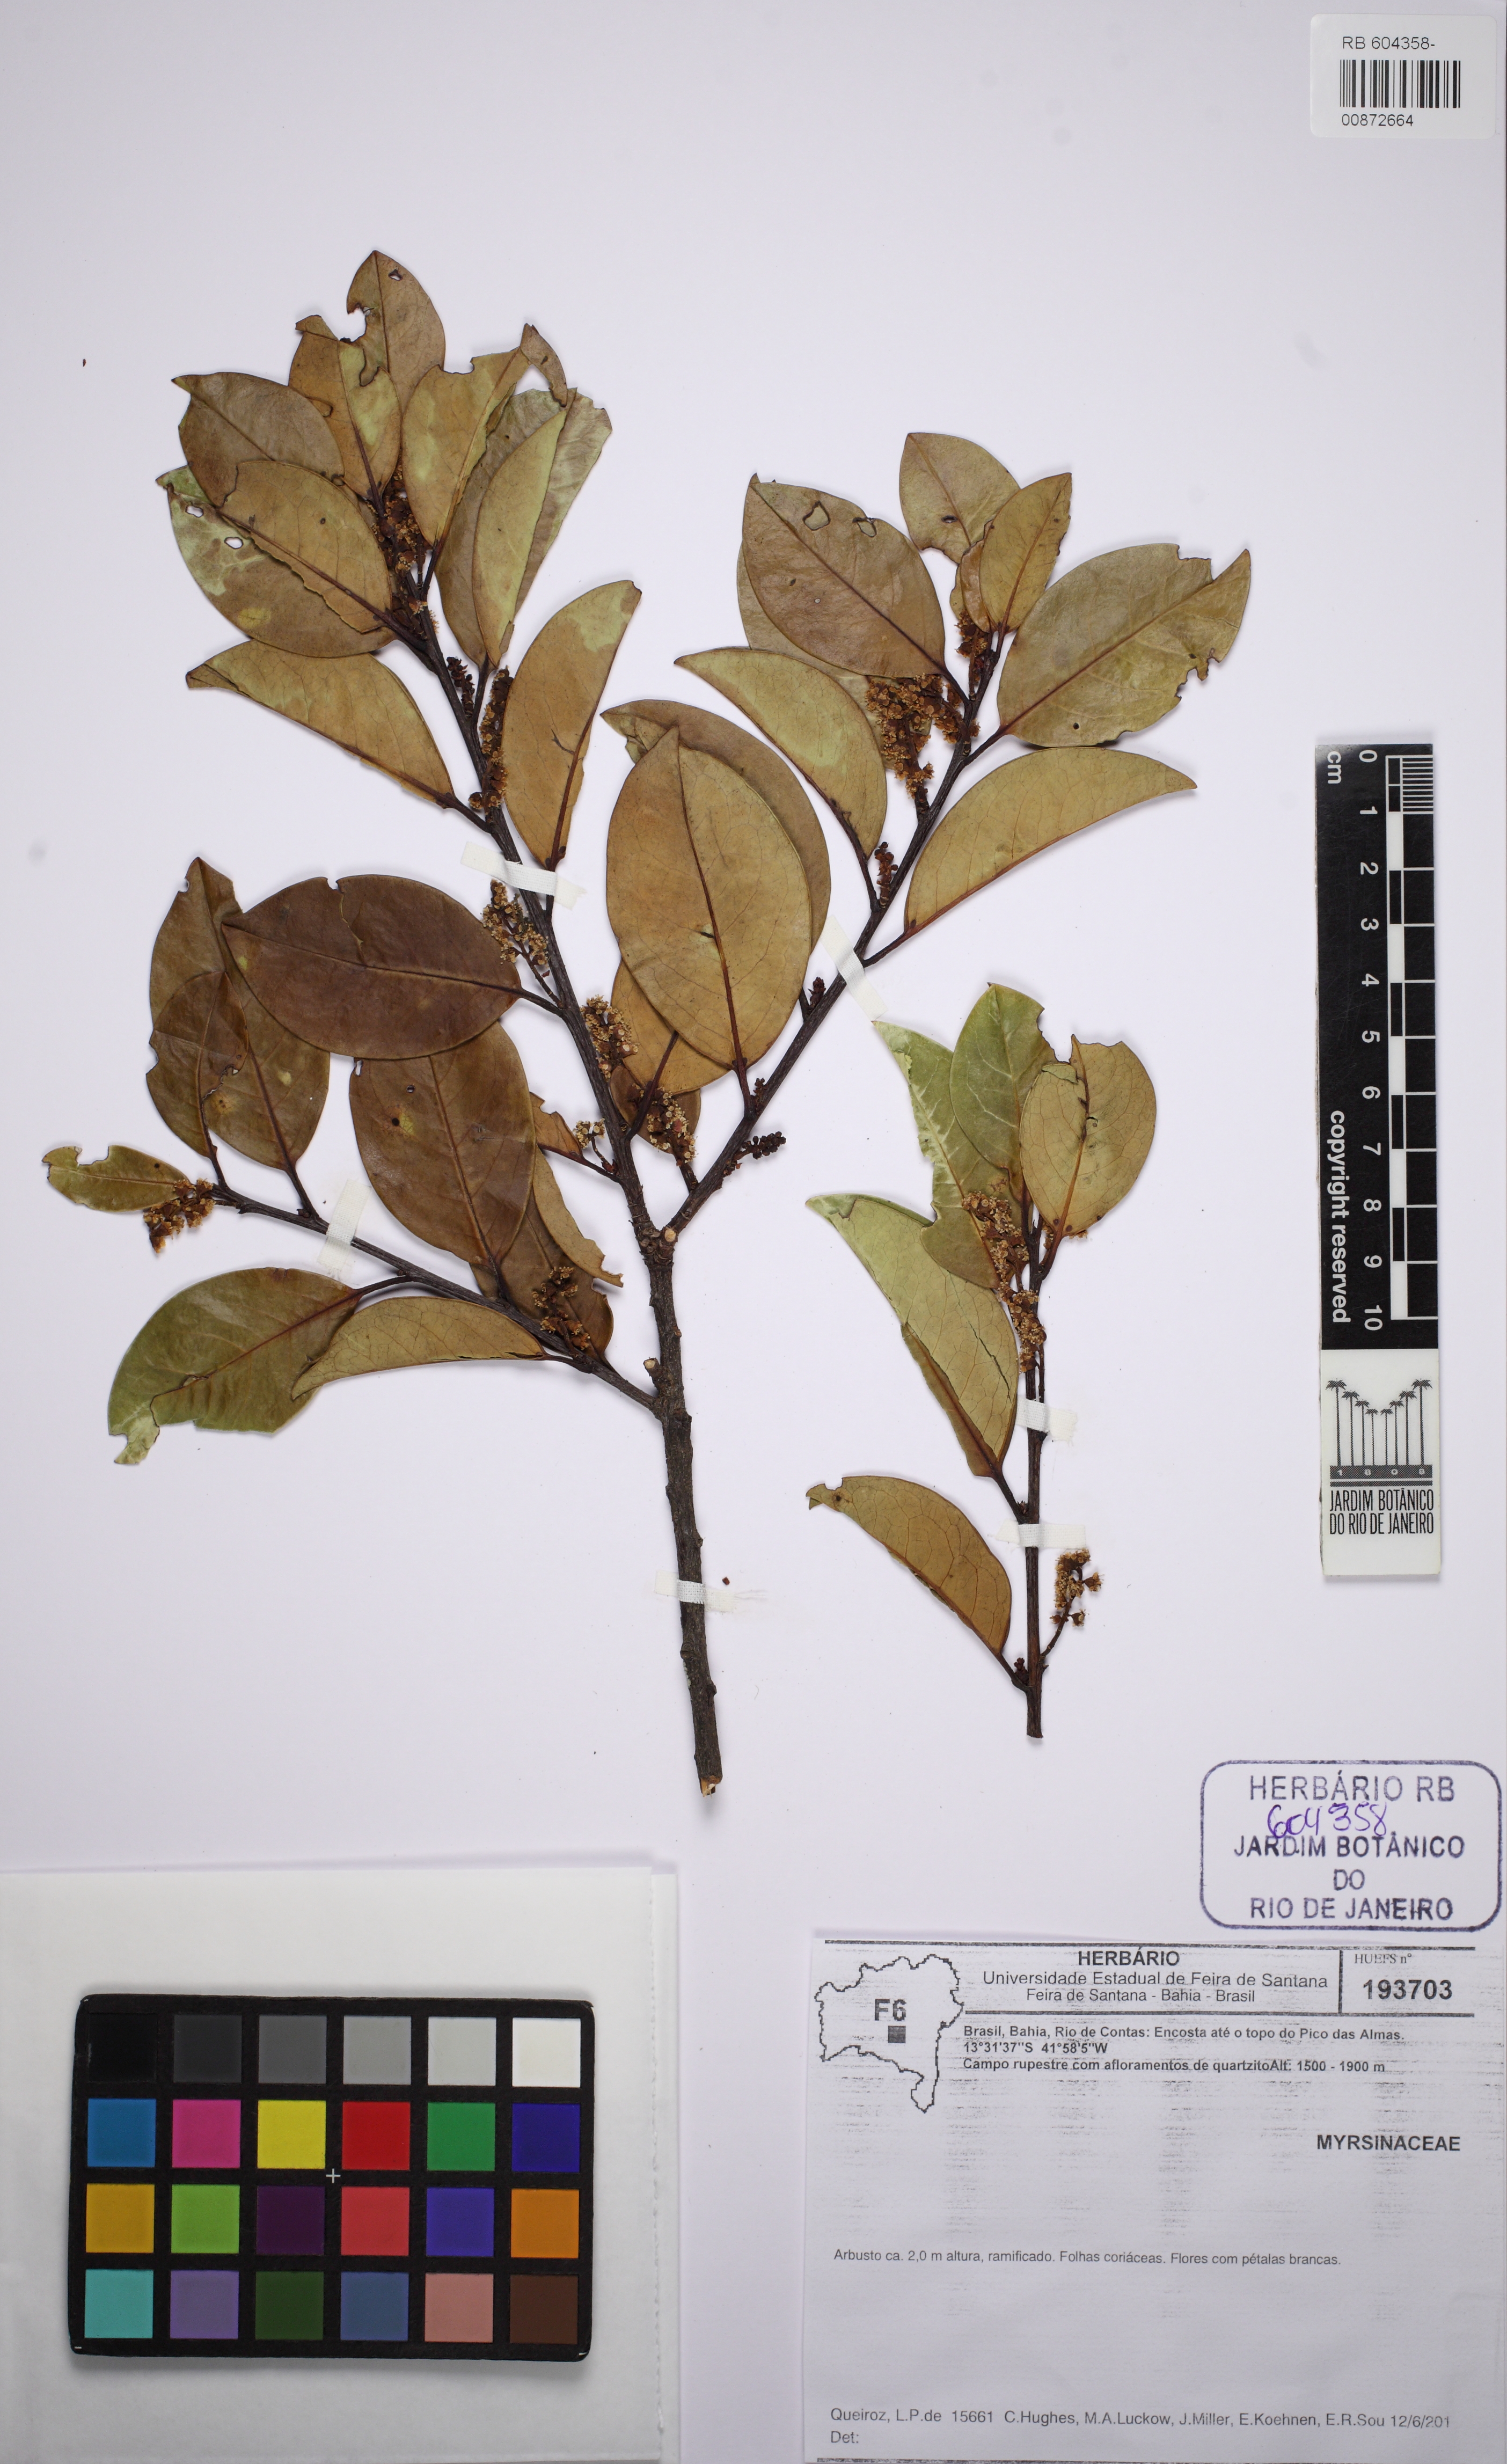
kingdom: Plantae
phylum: Tracheophyta
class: Magnoliopsida
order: Ericales
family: Primulaceae
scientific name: Primulaceae
